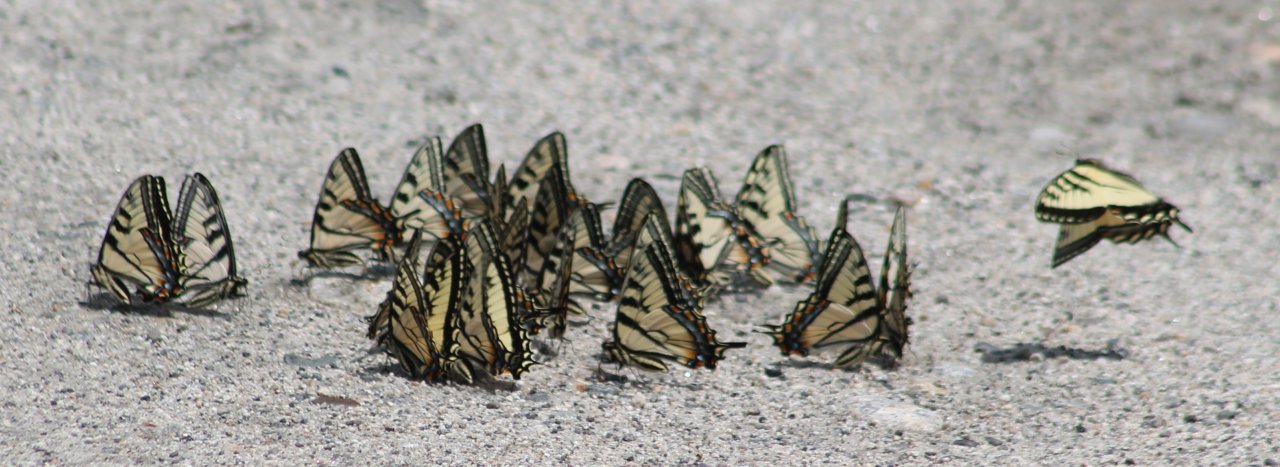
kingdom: Animalia
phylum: Arthropoda
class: Insecta
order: Lepidoptera
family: Papilionidae
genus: Pterourus
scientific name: Pterourus canadensis
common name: Canadian Tiger Swallowtail
